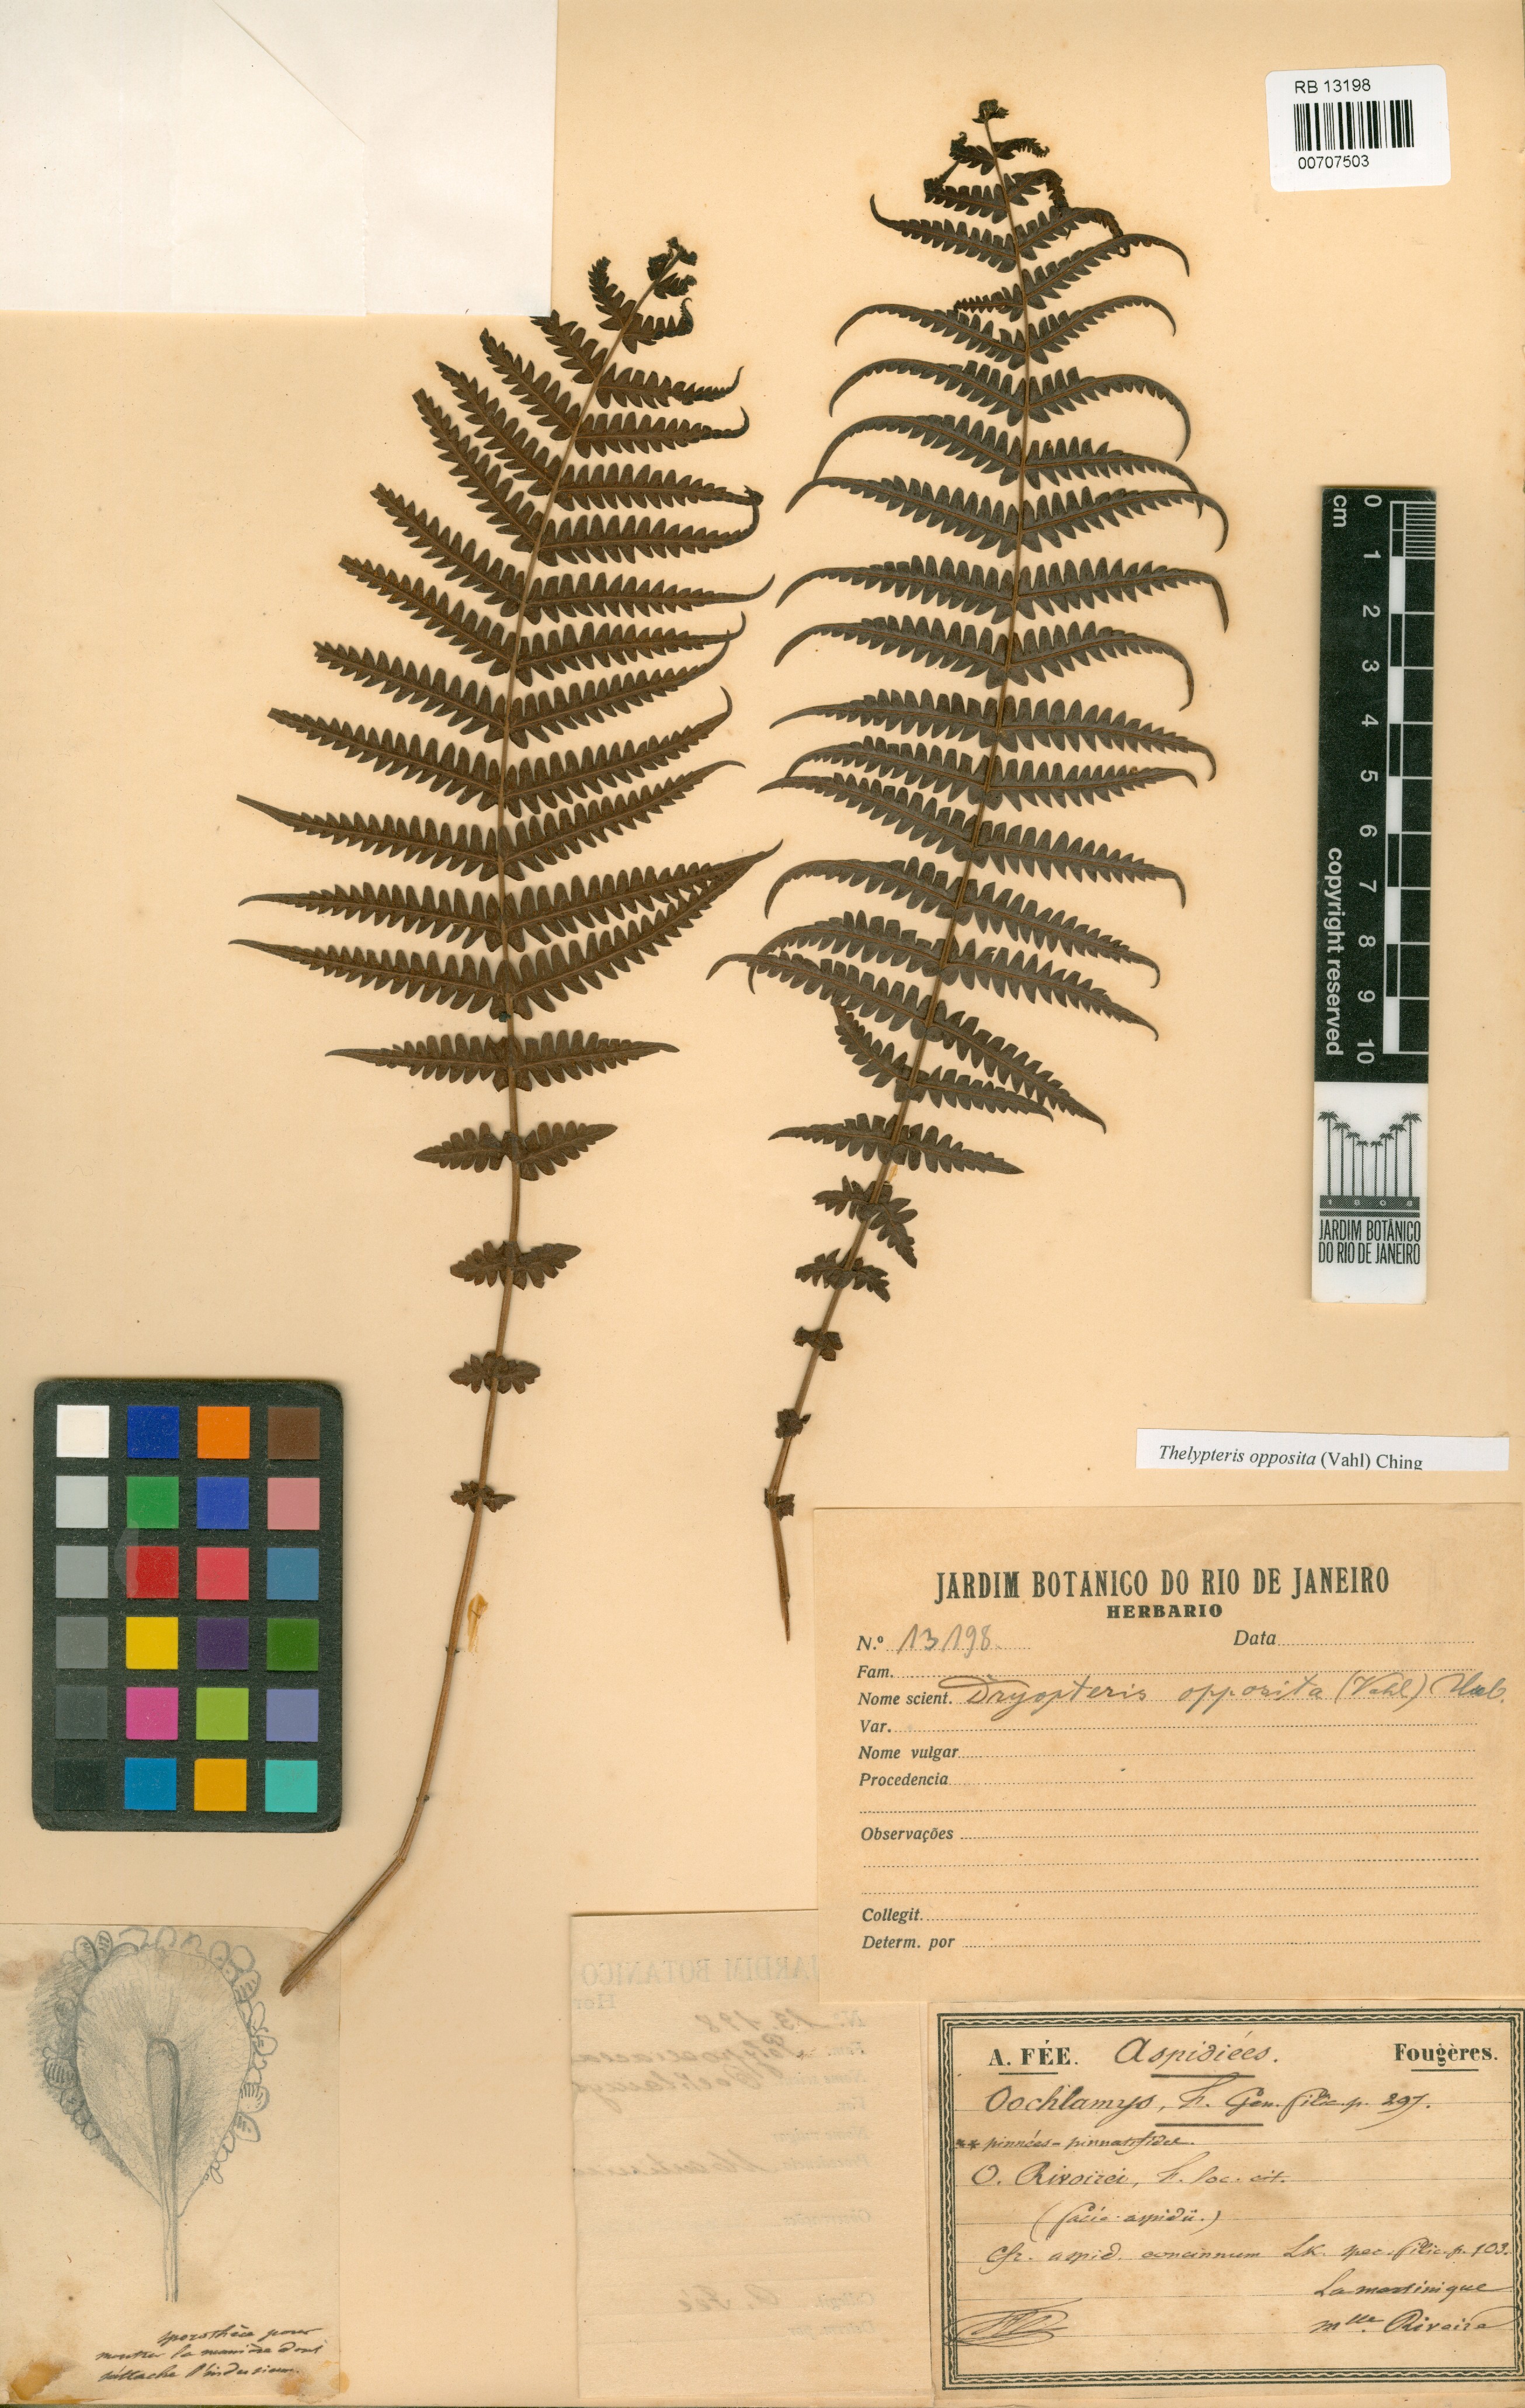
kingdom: Plantae
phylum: Tracheophyta
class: Polypodiopsida
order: Polypodiales
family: Thelypteridaceae
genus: Amauropelta
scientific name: Amauropelta opposita
